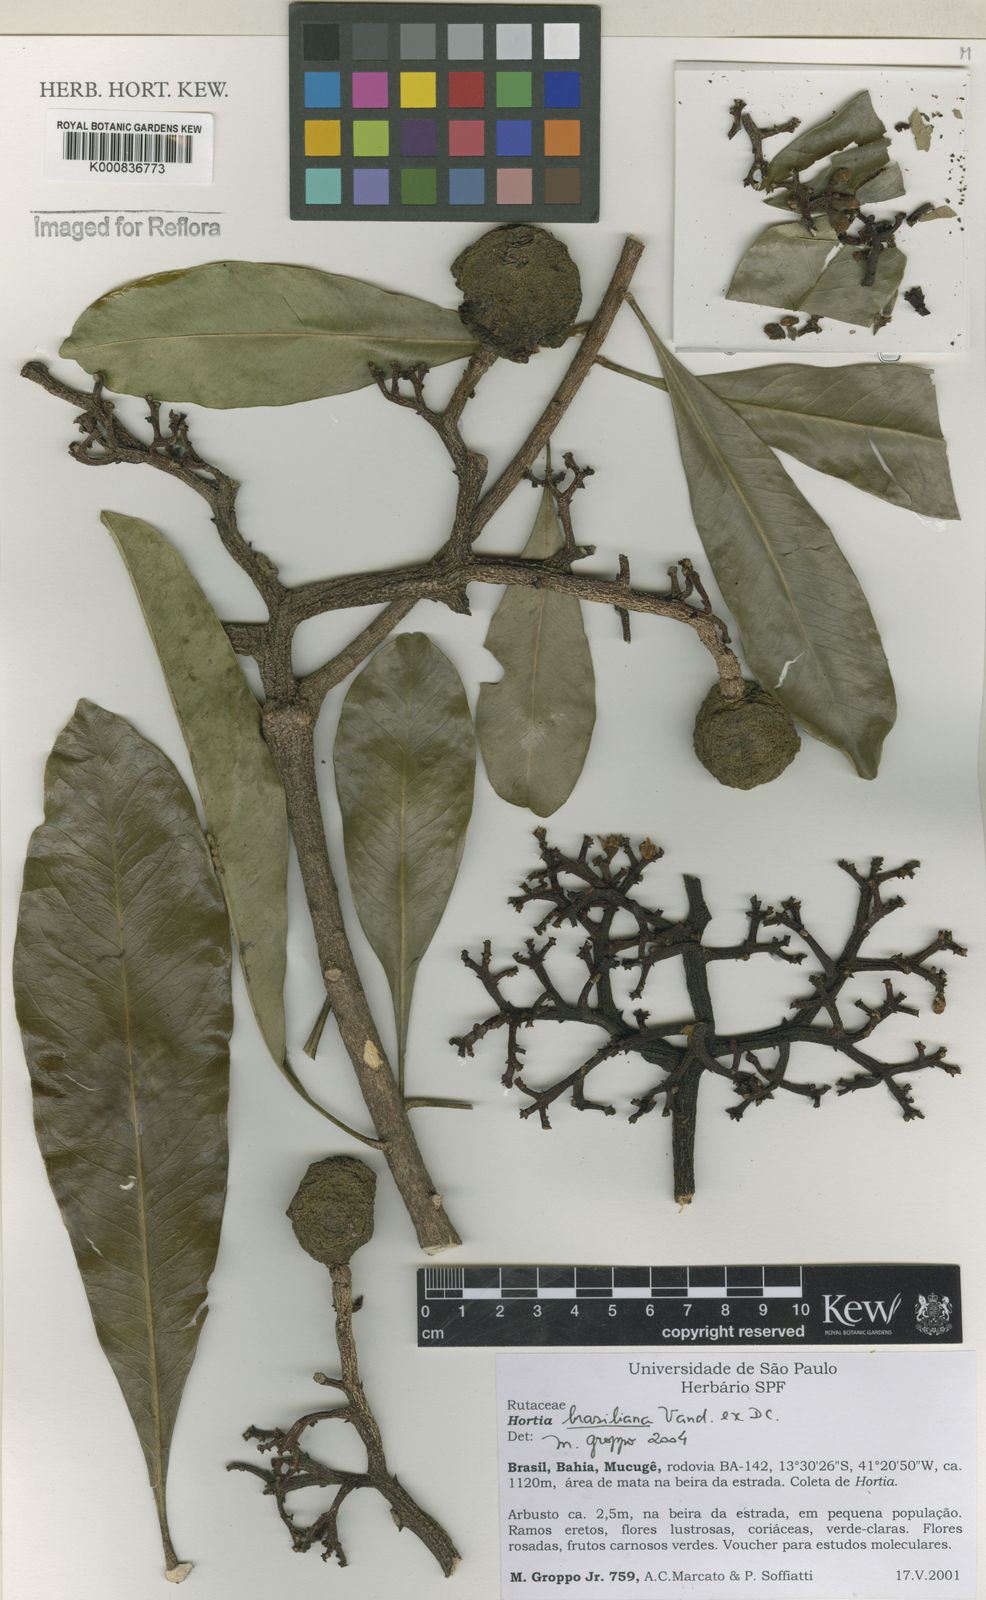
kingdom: Plantae
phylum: Tracheophyta
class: Magnoliopsida
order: Sapindales
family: Rutaceae
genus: Hortia
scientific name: Hortia brasiliana
